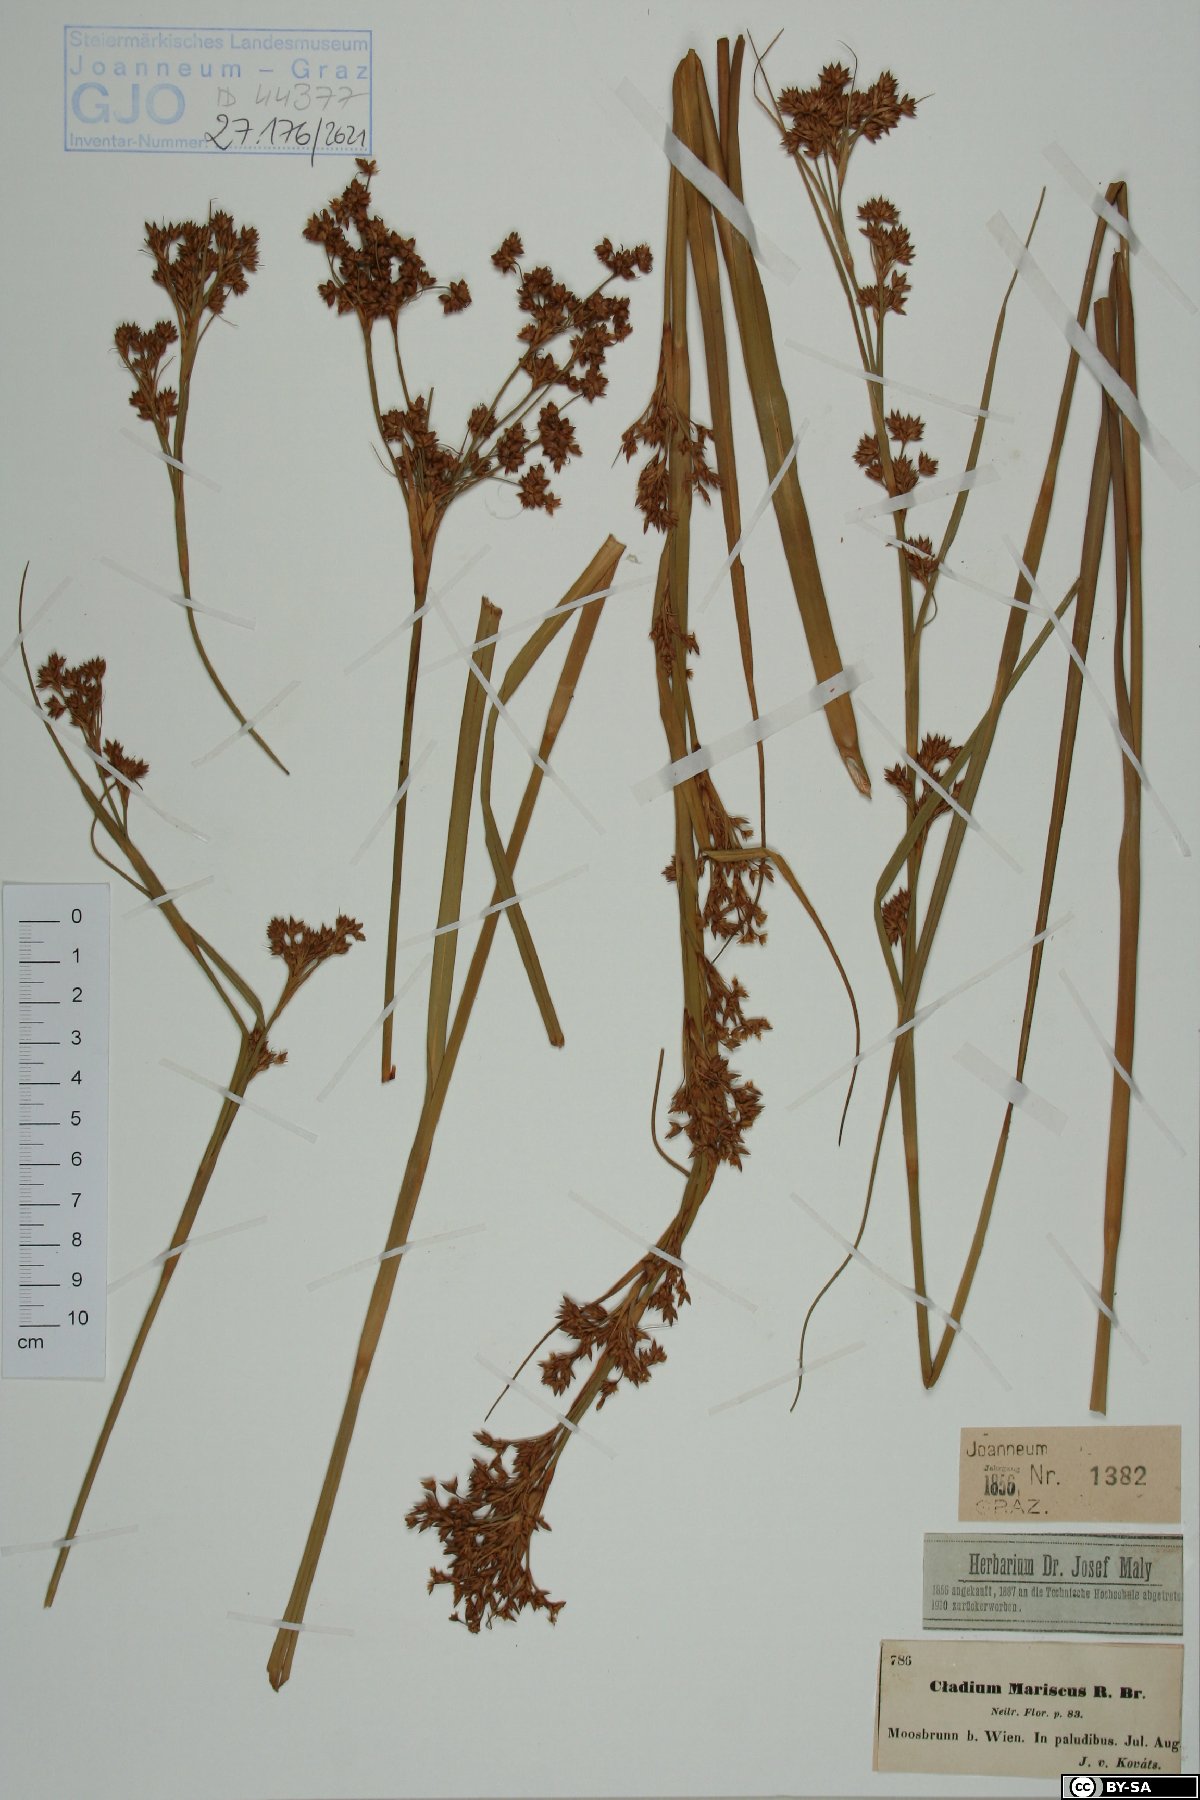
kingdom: Plantae
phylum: Tracheophyta
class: Liliopsida
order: Poales
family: Cyperaceae
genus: Cladium
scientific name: Cladium mariscus
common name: Great fen-sedge
